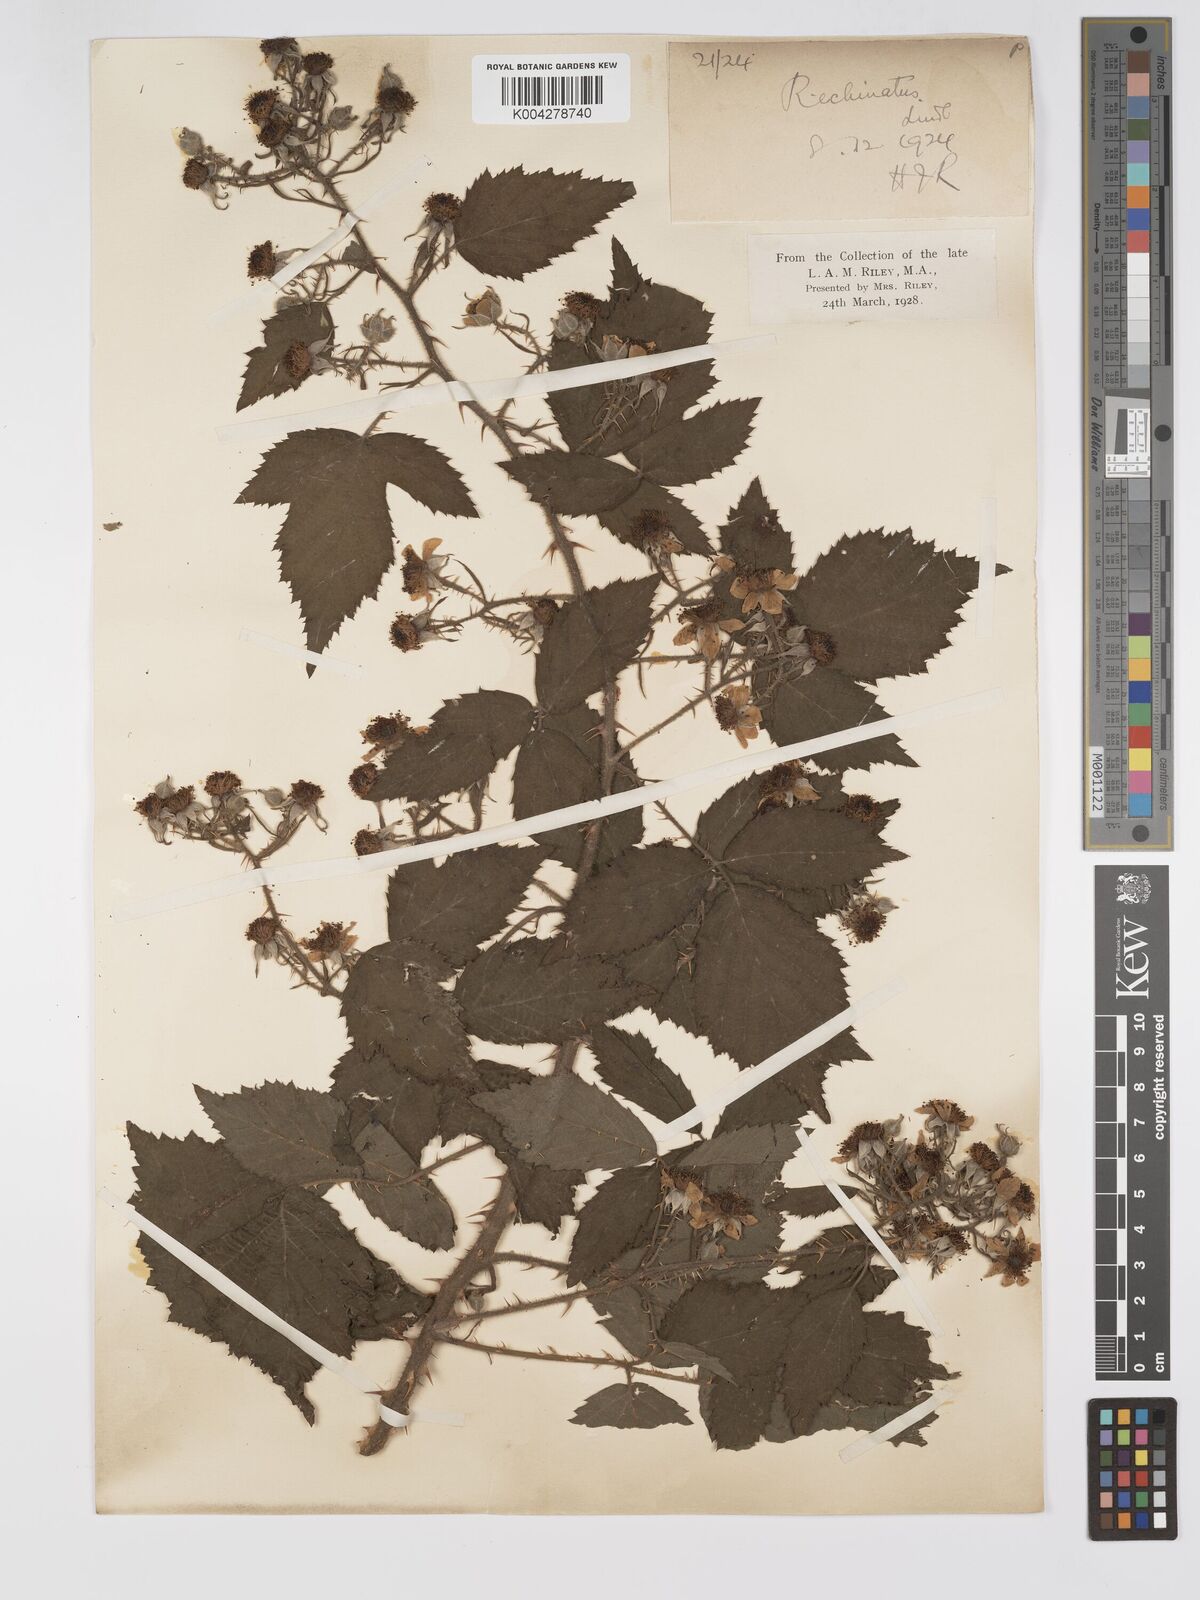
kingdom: Plantae
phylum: Tracheophyta
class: Magnoliopsida
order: Rosales
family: Rosaceae
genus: Rubus
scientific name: Rubus echinatus
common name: Echinate bramble
